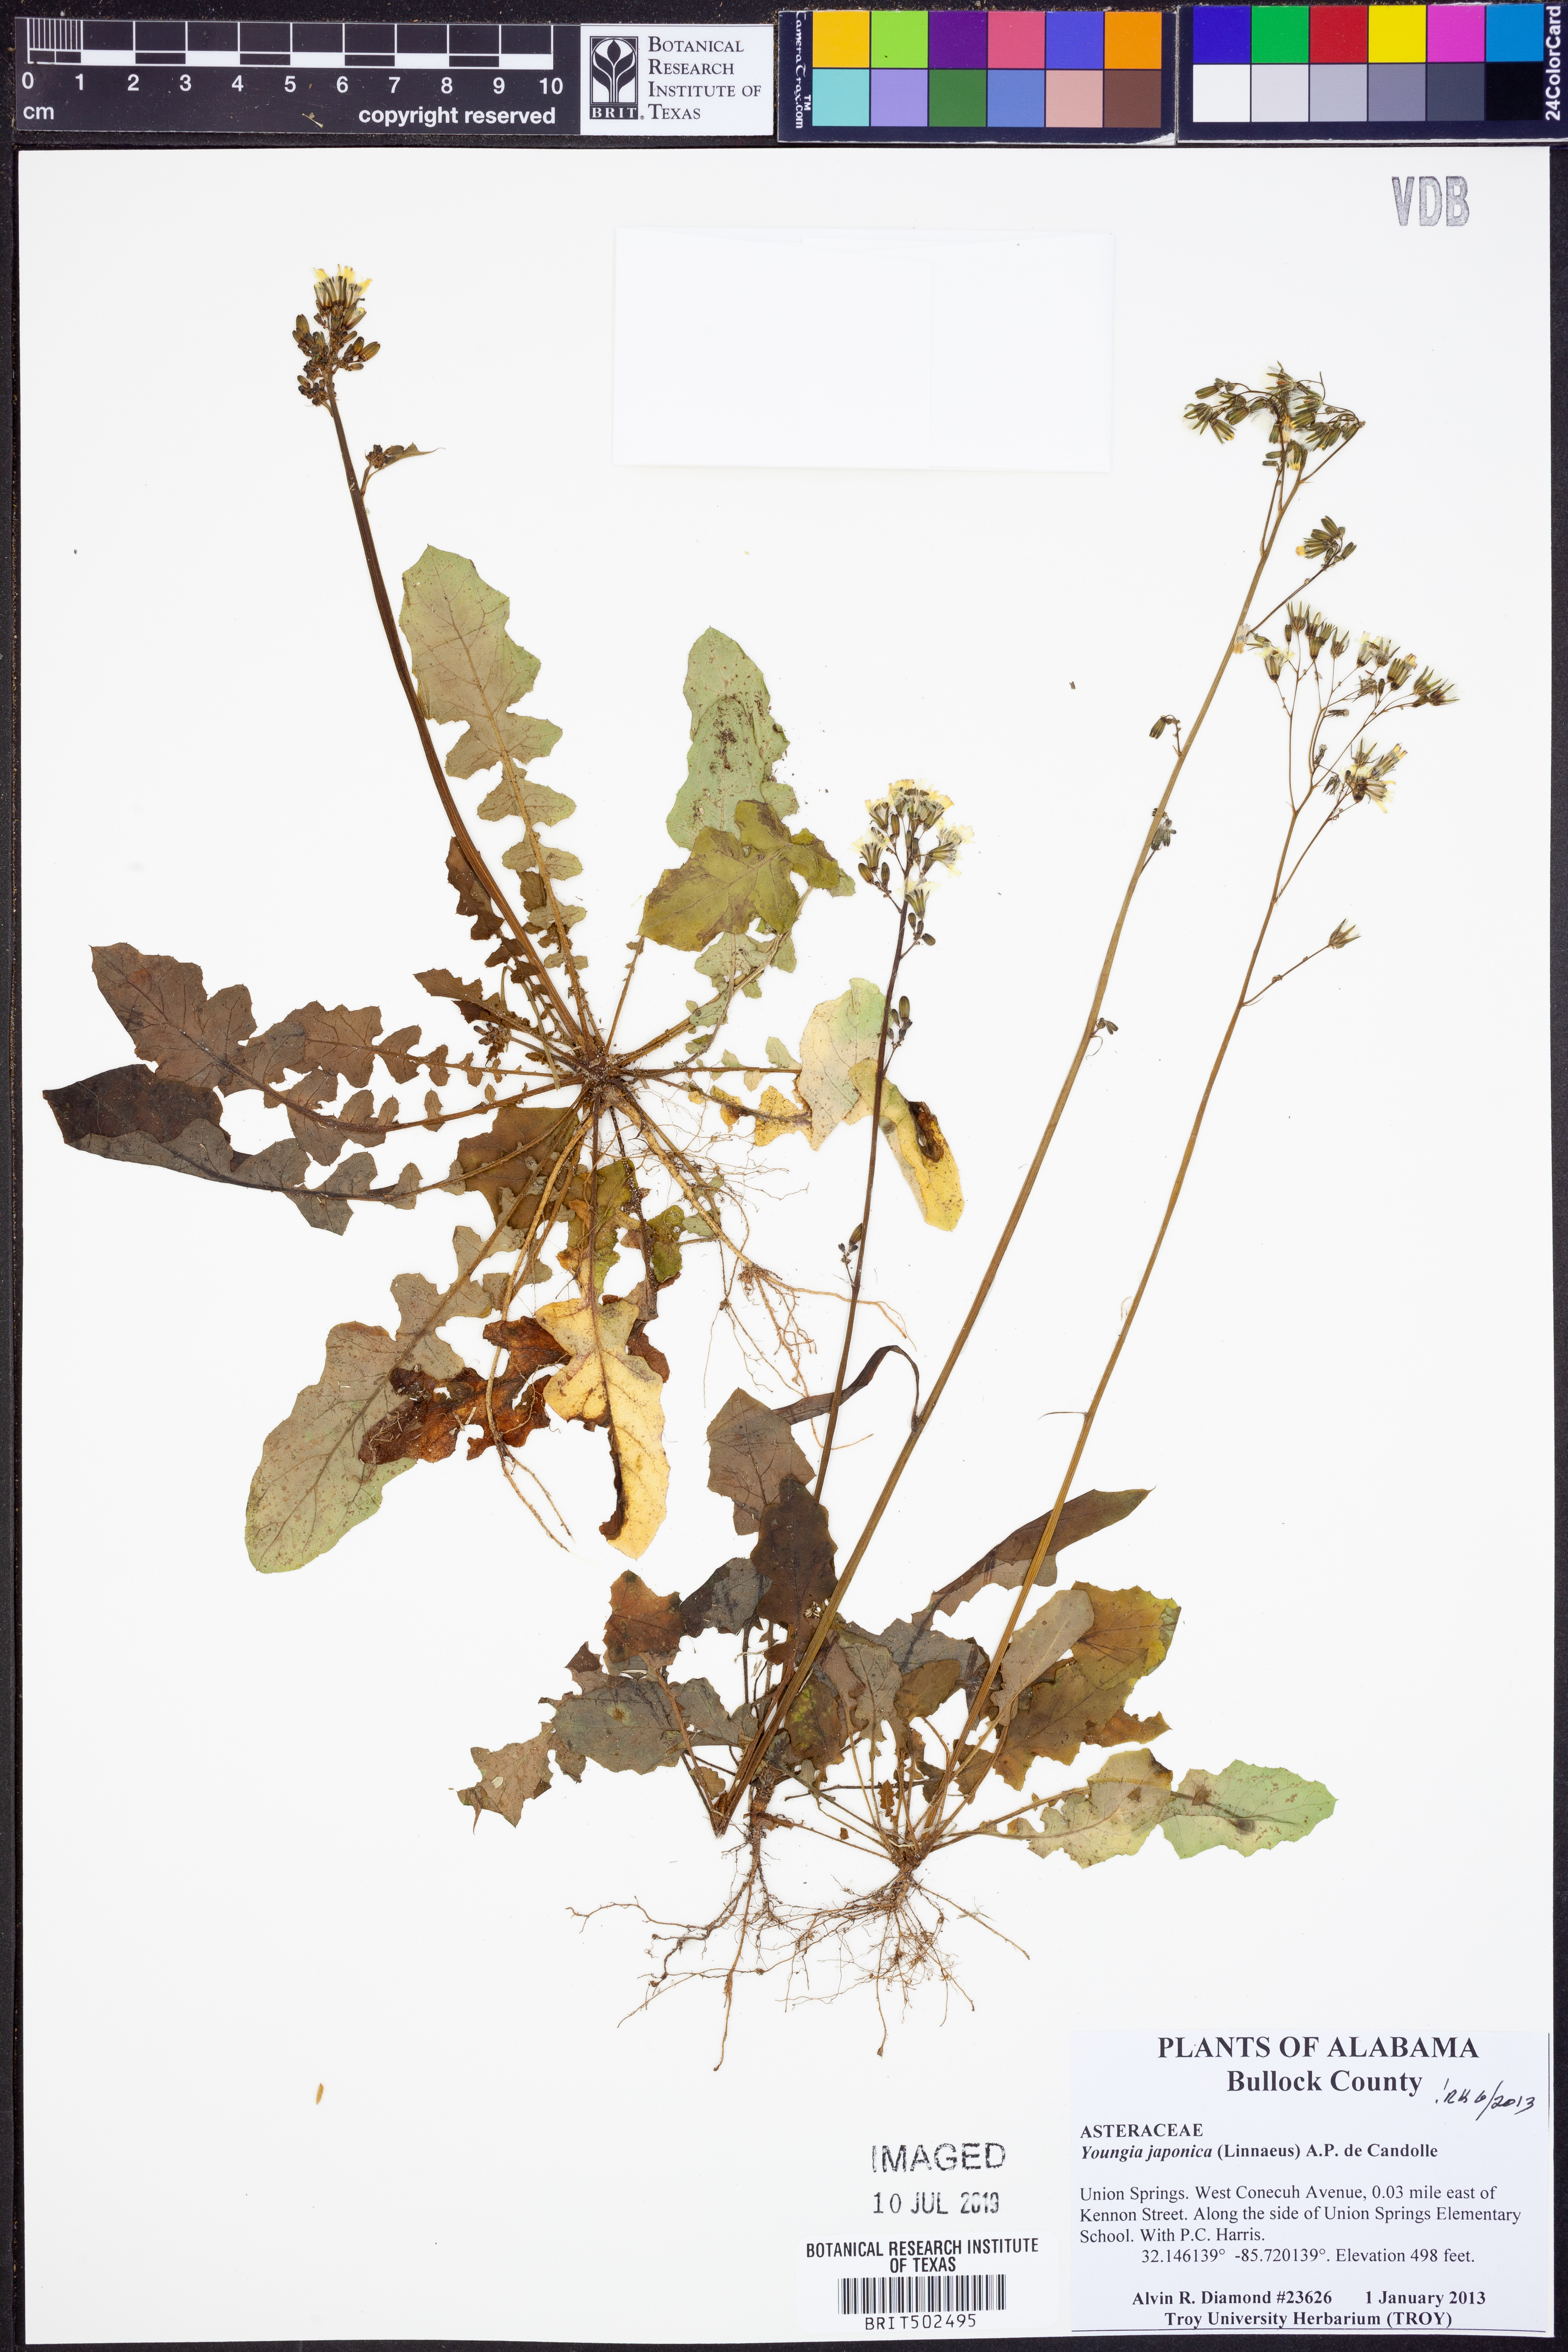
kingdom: Plantae
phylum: Tracheophyta
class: Magnoliopsida
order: Asterales
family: Asteraceae
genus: Youngia
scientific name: Youngia japonica
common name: Oriental false hawksbeard
